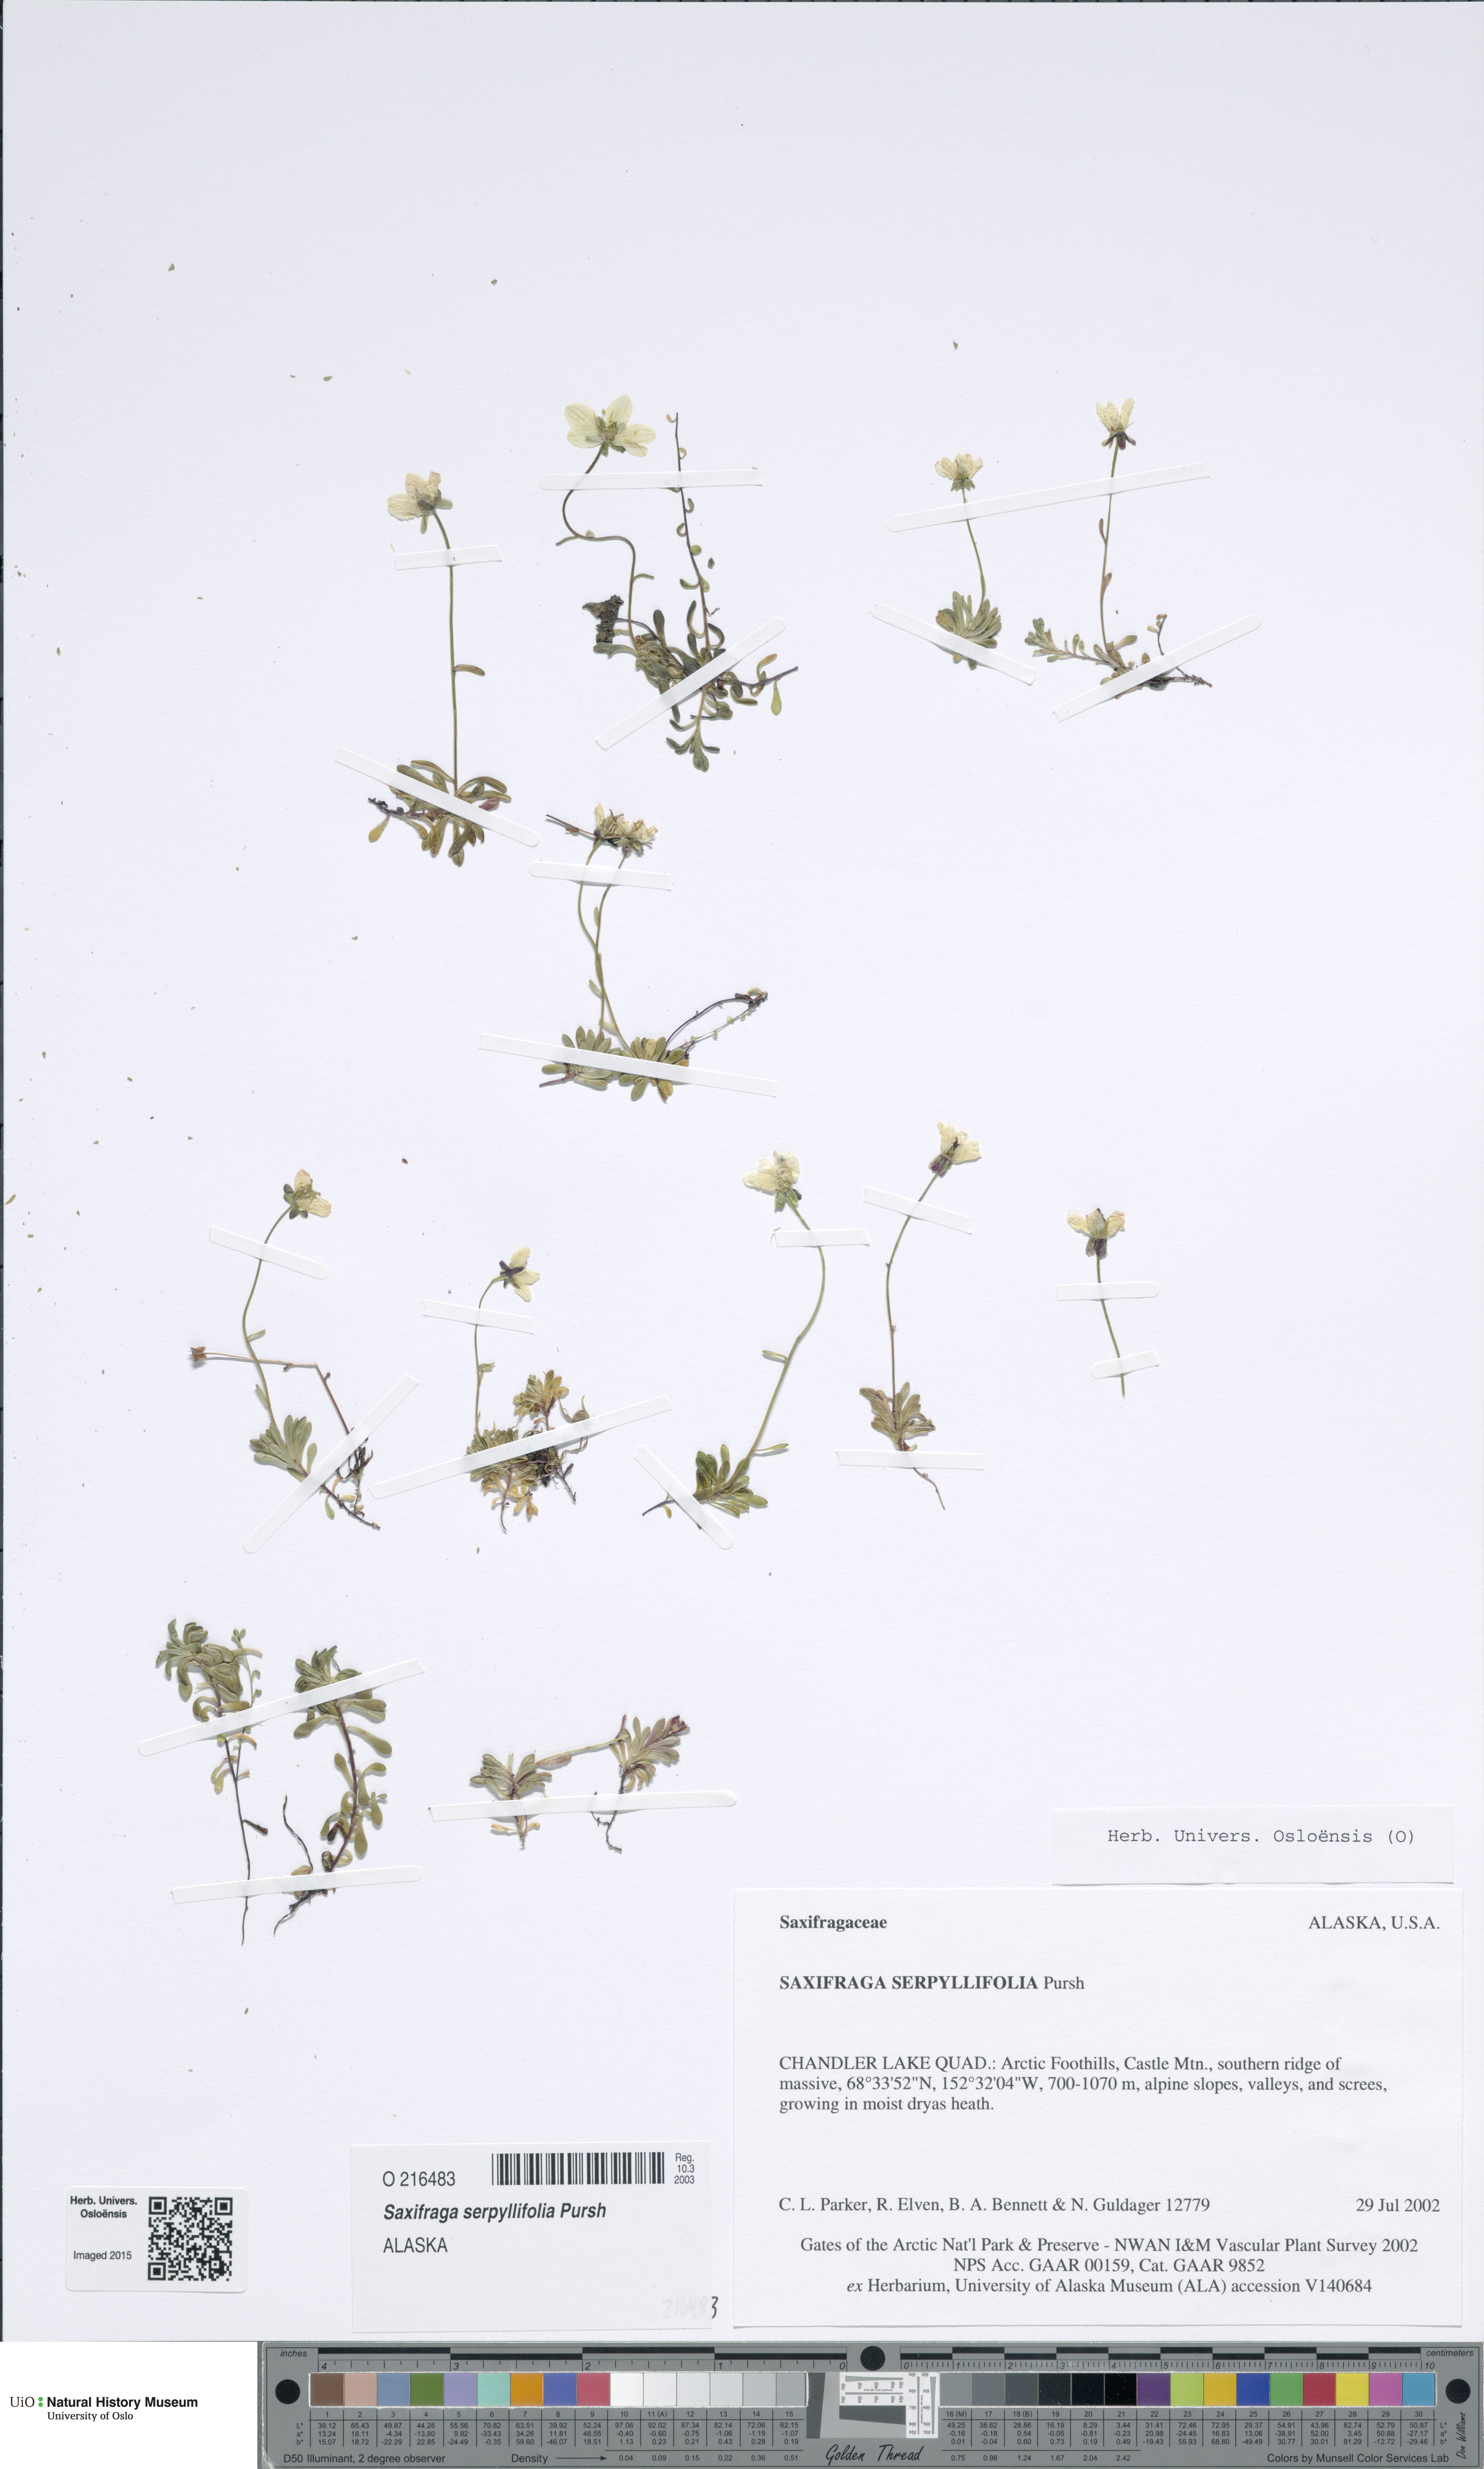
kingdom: Plantae
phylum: Tracheophyta
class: Magnoliopsida
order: Saxifragales
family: Saxifragaceae
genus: Saxifraga
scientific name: Saxifraga serpyllifolia
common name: Thyme-leaved saxifrage
